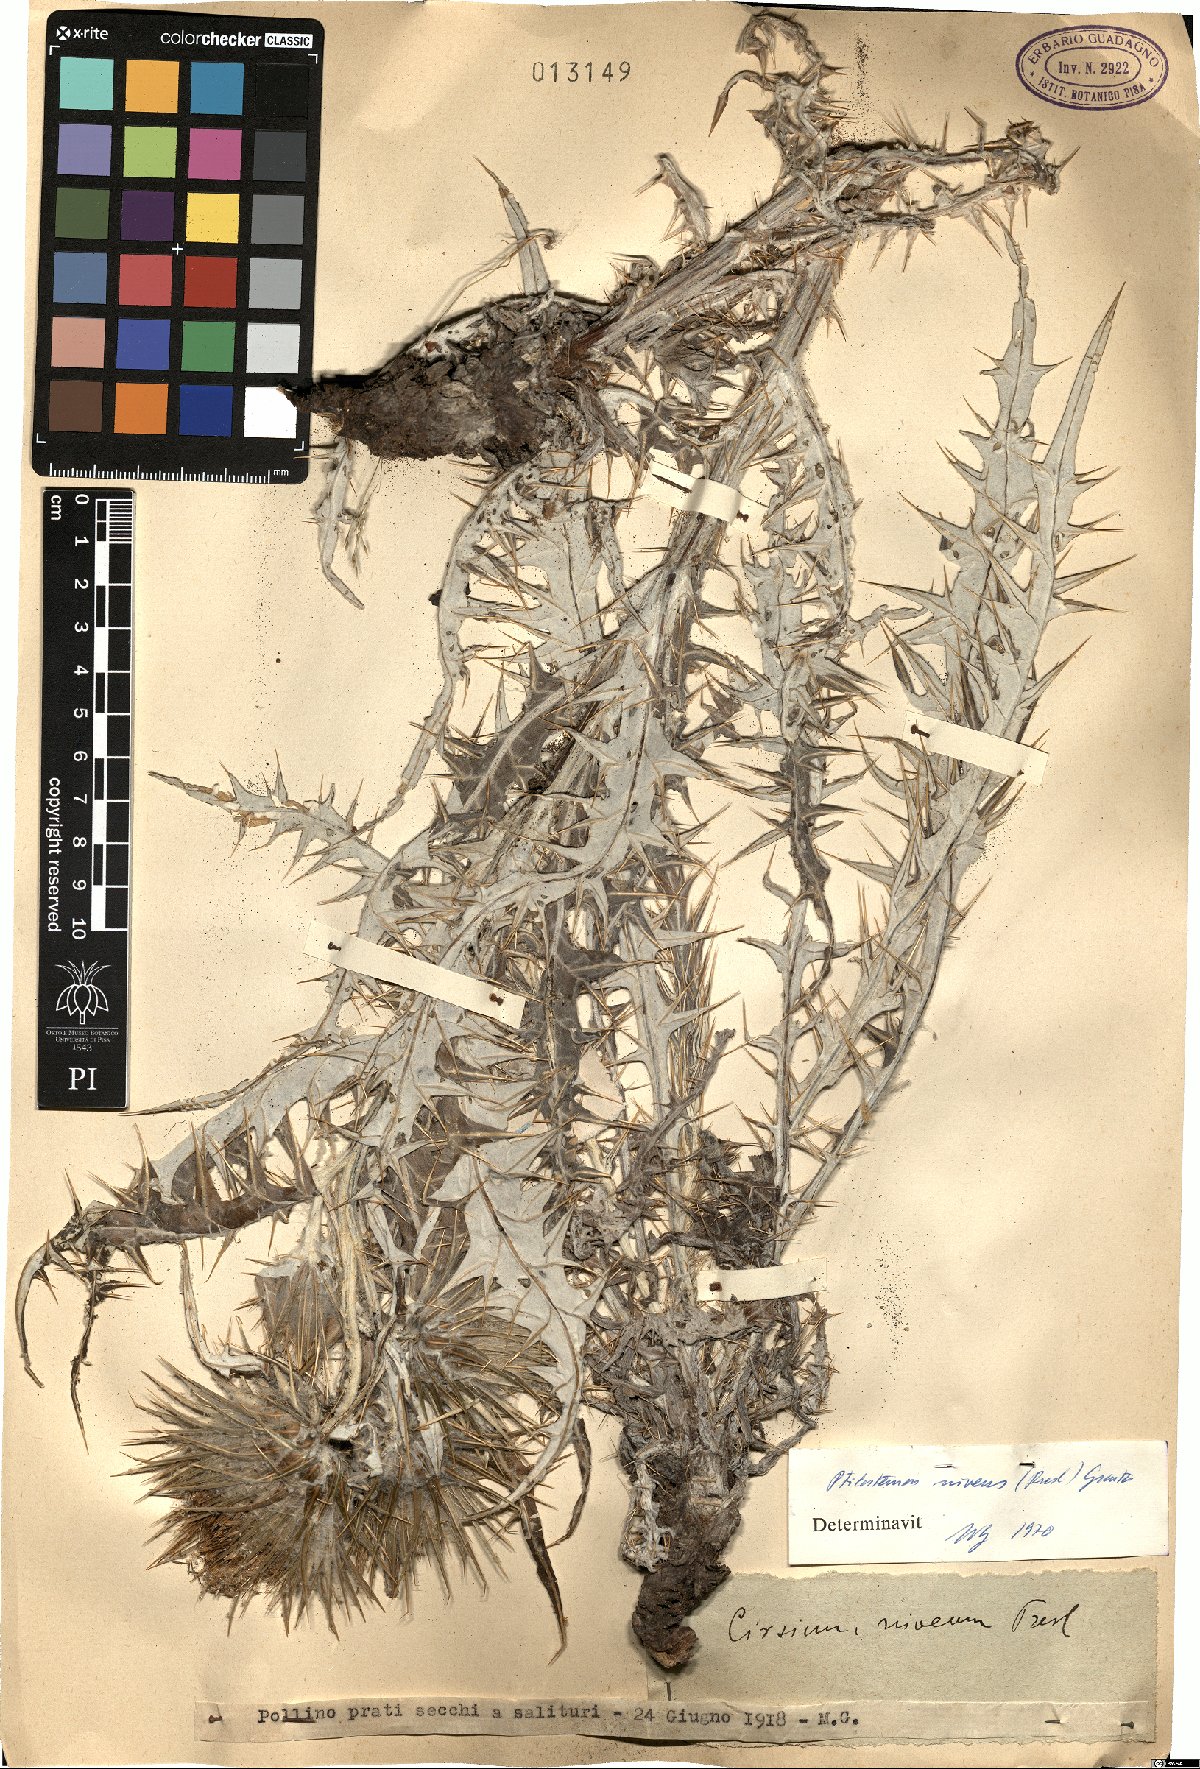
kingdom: Plantae
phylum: Tracheophyta
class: Magnoliopsida
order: Asterales
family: Asteraceae
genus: Ptilostemon
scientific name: Ptilostemon niveus
